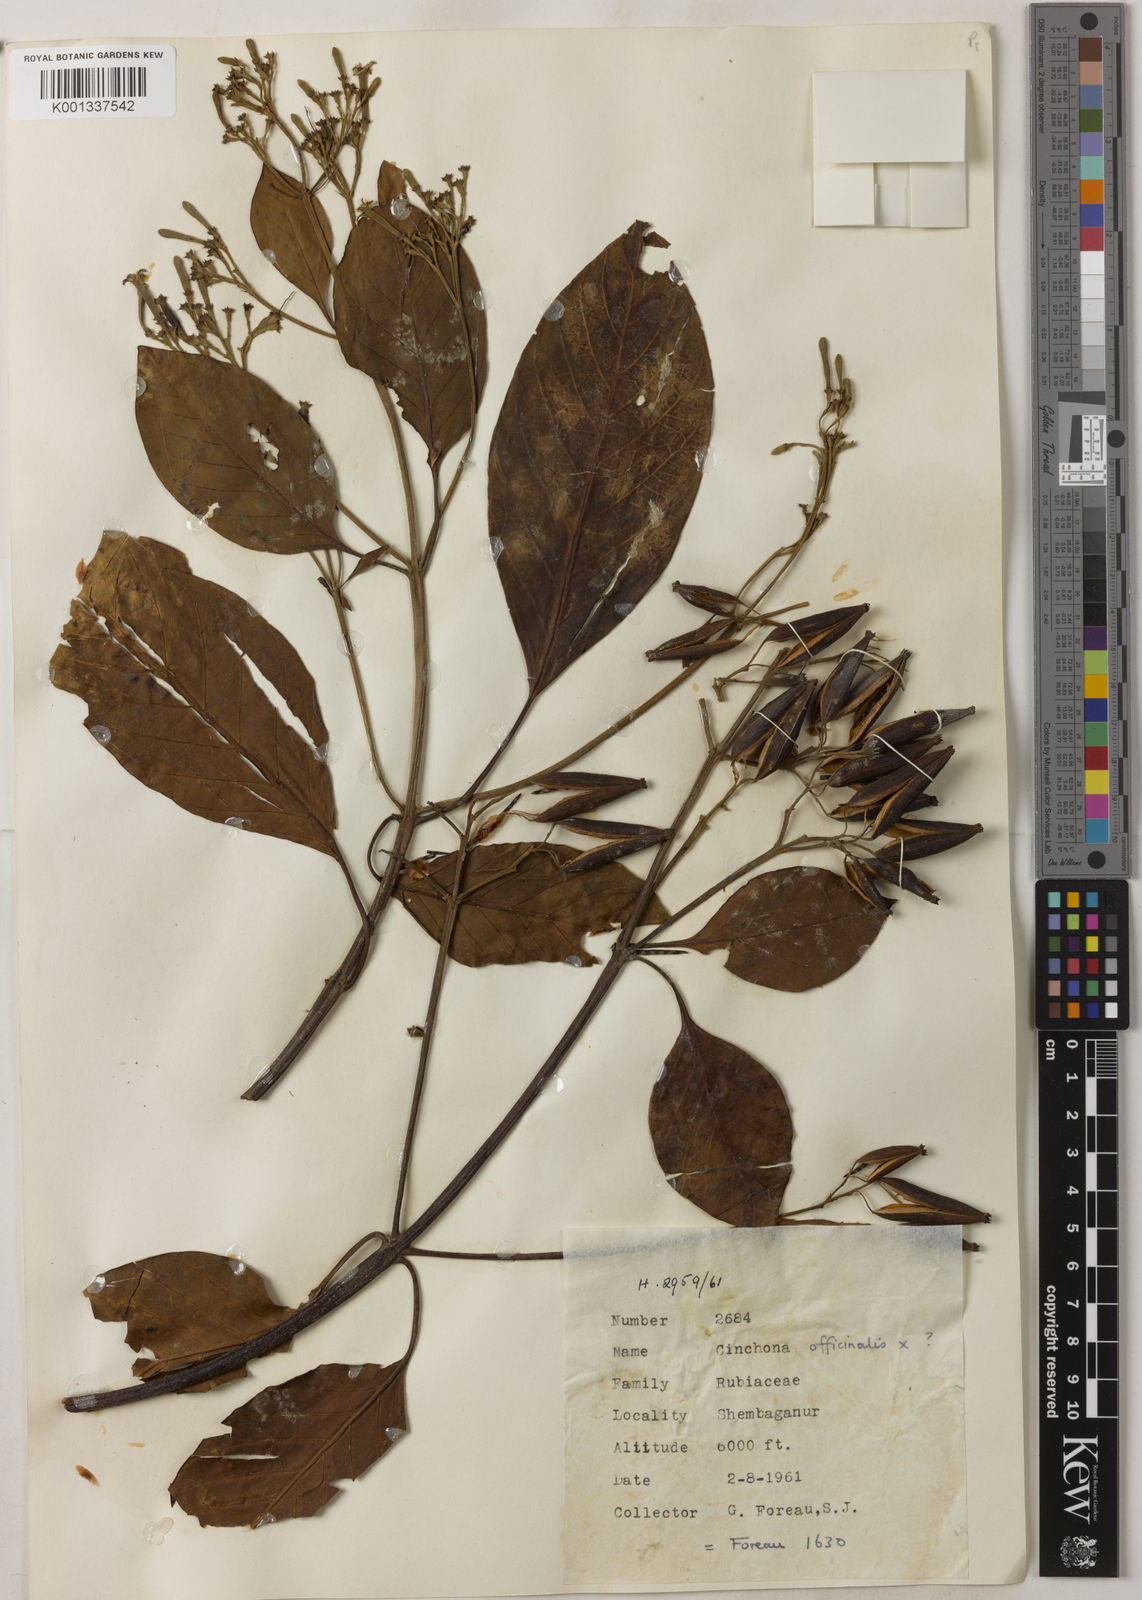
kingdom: Plantae
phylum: Tracheophyta
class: Magnoliopsida
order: Gentianales
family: Rubiaceae
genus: Cinchona
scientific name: Cinchona calisaya
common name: Ledgerbark
